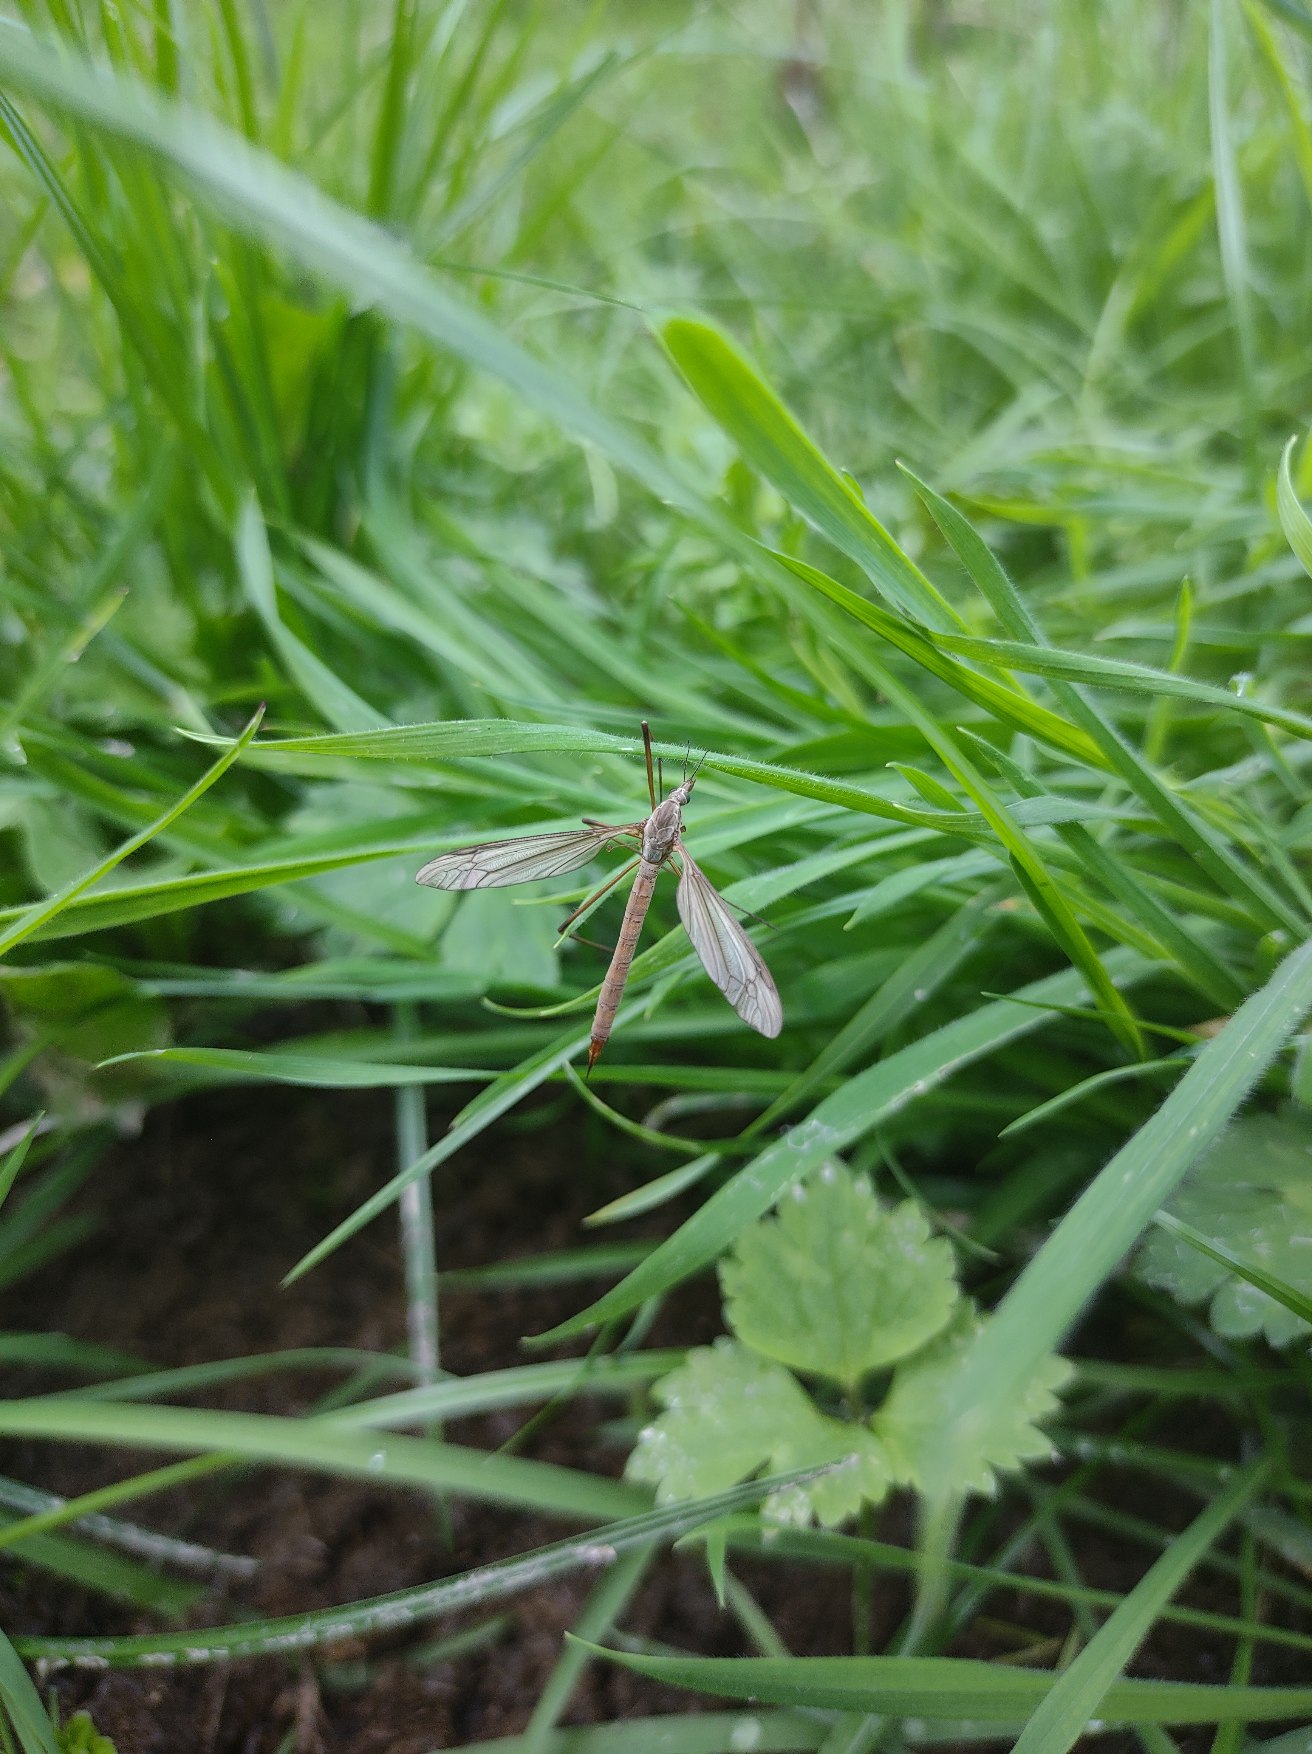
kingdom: Animalia
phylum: Arthropoda
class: Insecta
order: Diptera
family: Tipulidae
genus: Tipula
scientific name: Tipula paludosa
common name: Mosestankelben
